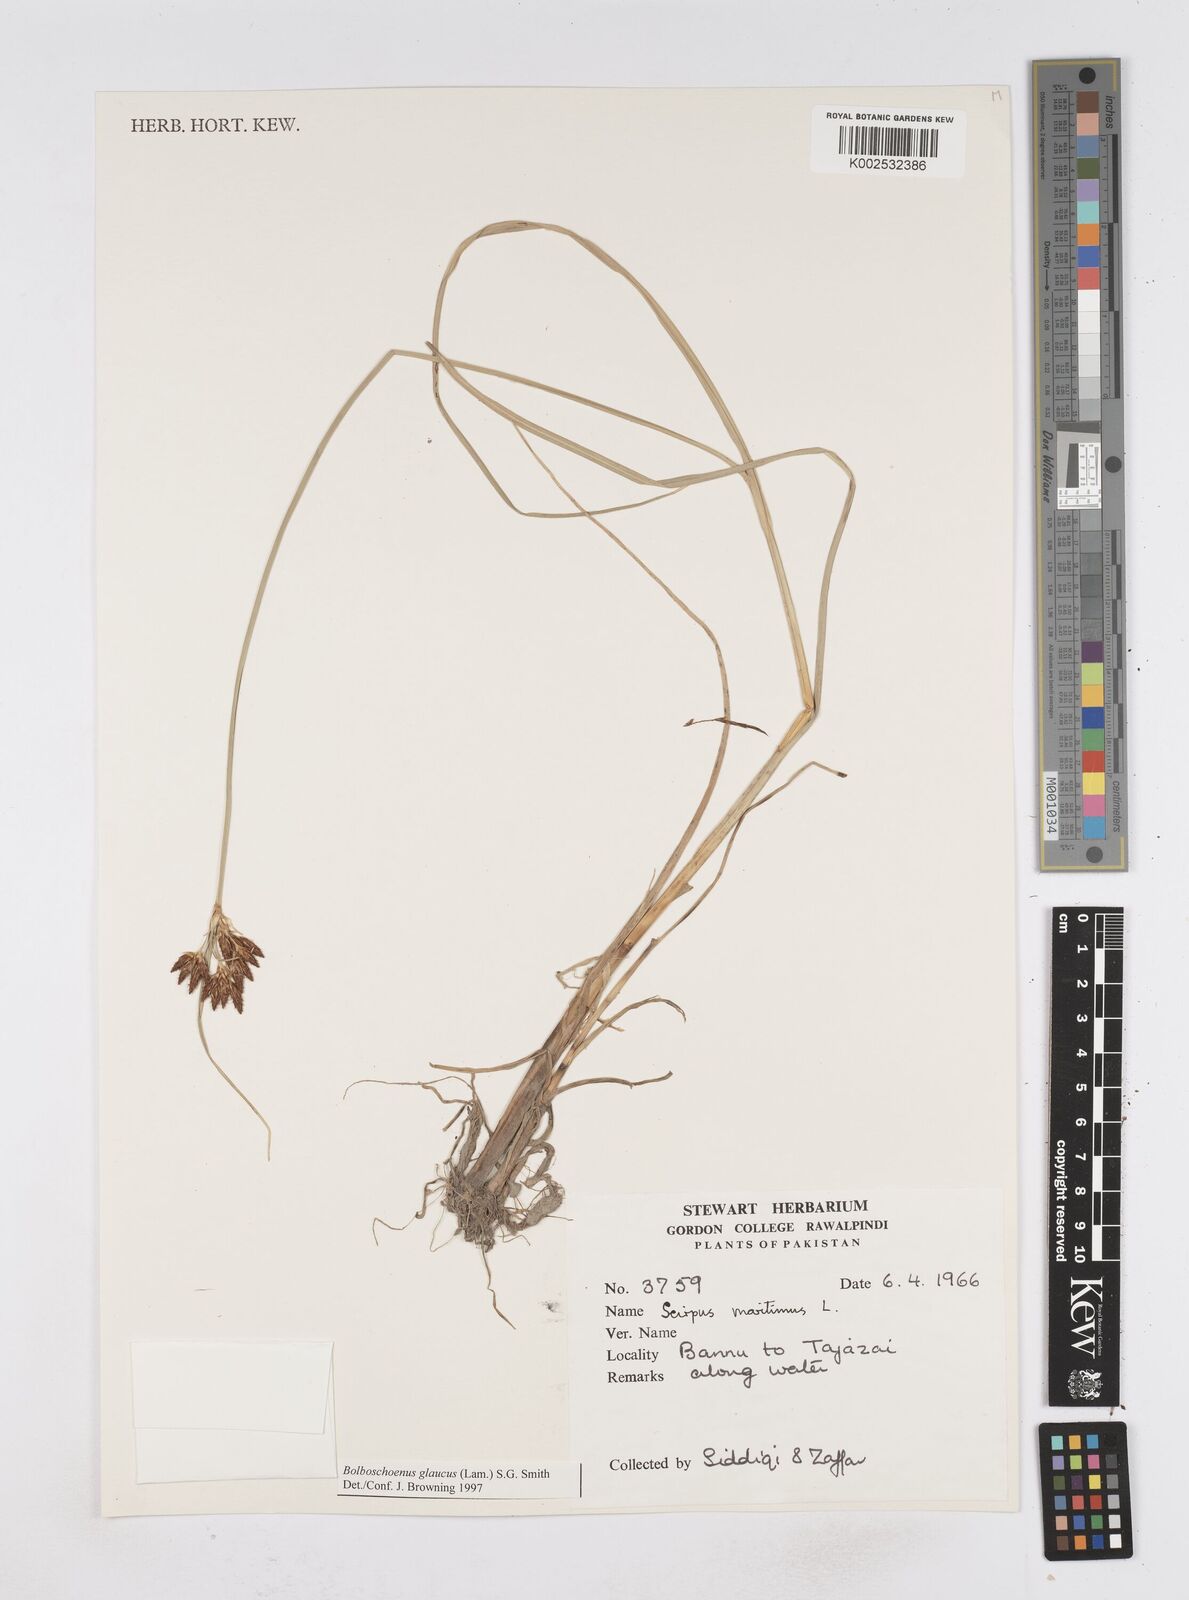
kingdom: Plantae
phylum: Tracheophyta
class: Liliopsida
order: Poales
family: Cyperaceae
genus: Bolboschoenus
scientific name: Bolboschoenus maritimus
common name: Sea club-rush
